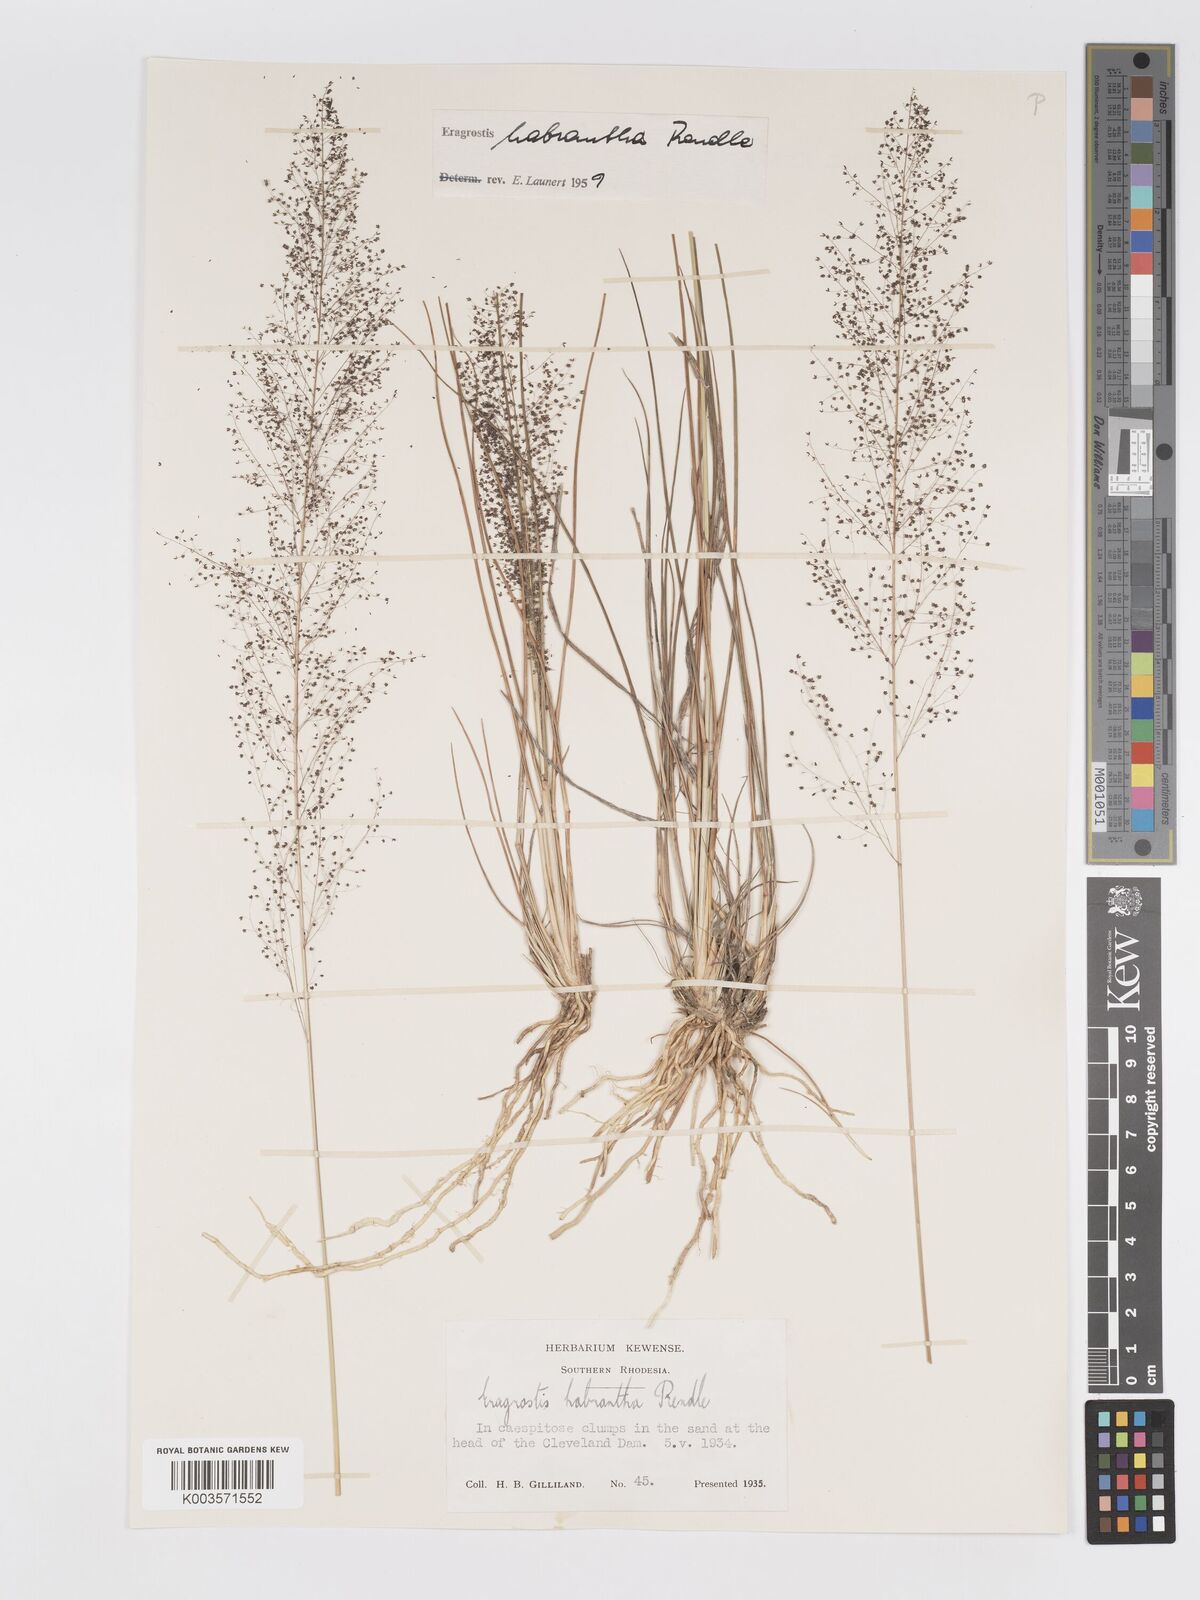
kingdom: Plantae
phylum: Tracheophyta
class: Liliopsida
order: Poales
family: Poaceae
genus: Eragrostis
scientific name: Eragrostis habrantha
